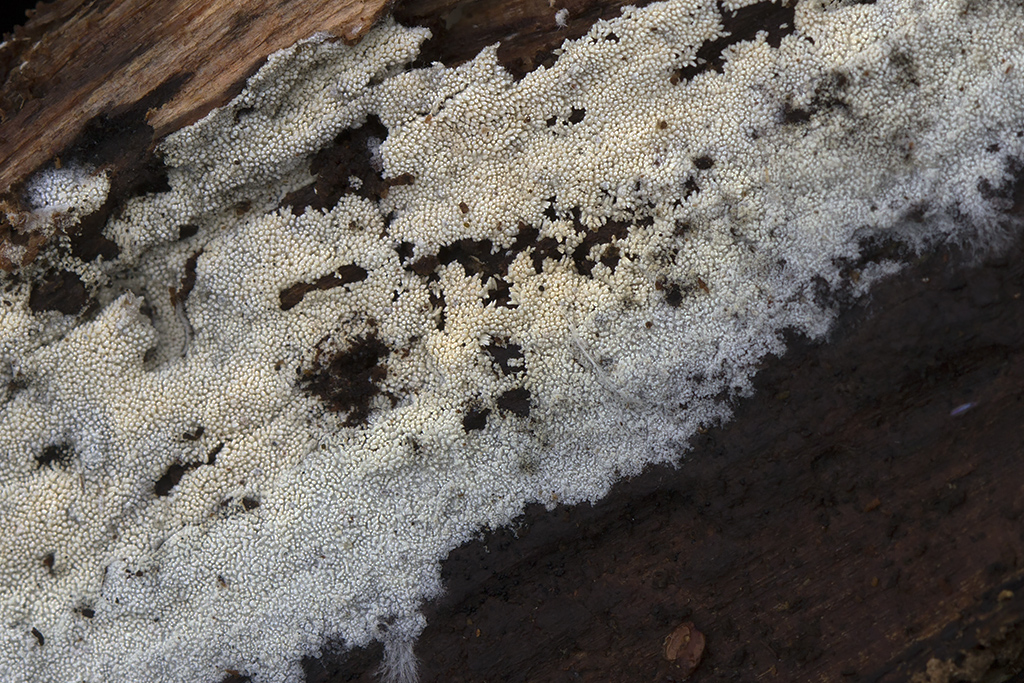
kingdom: Fungi
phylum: Basidiomycota
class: Agaricomycetes
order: Trechisporales
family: Sistotremataceae
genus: Trechispora
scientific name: Trechispora
